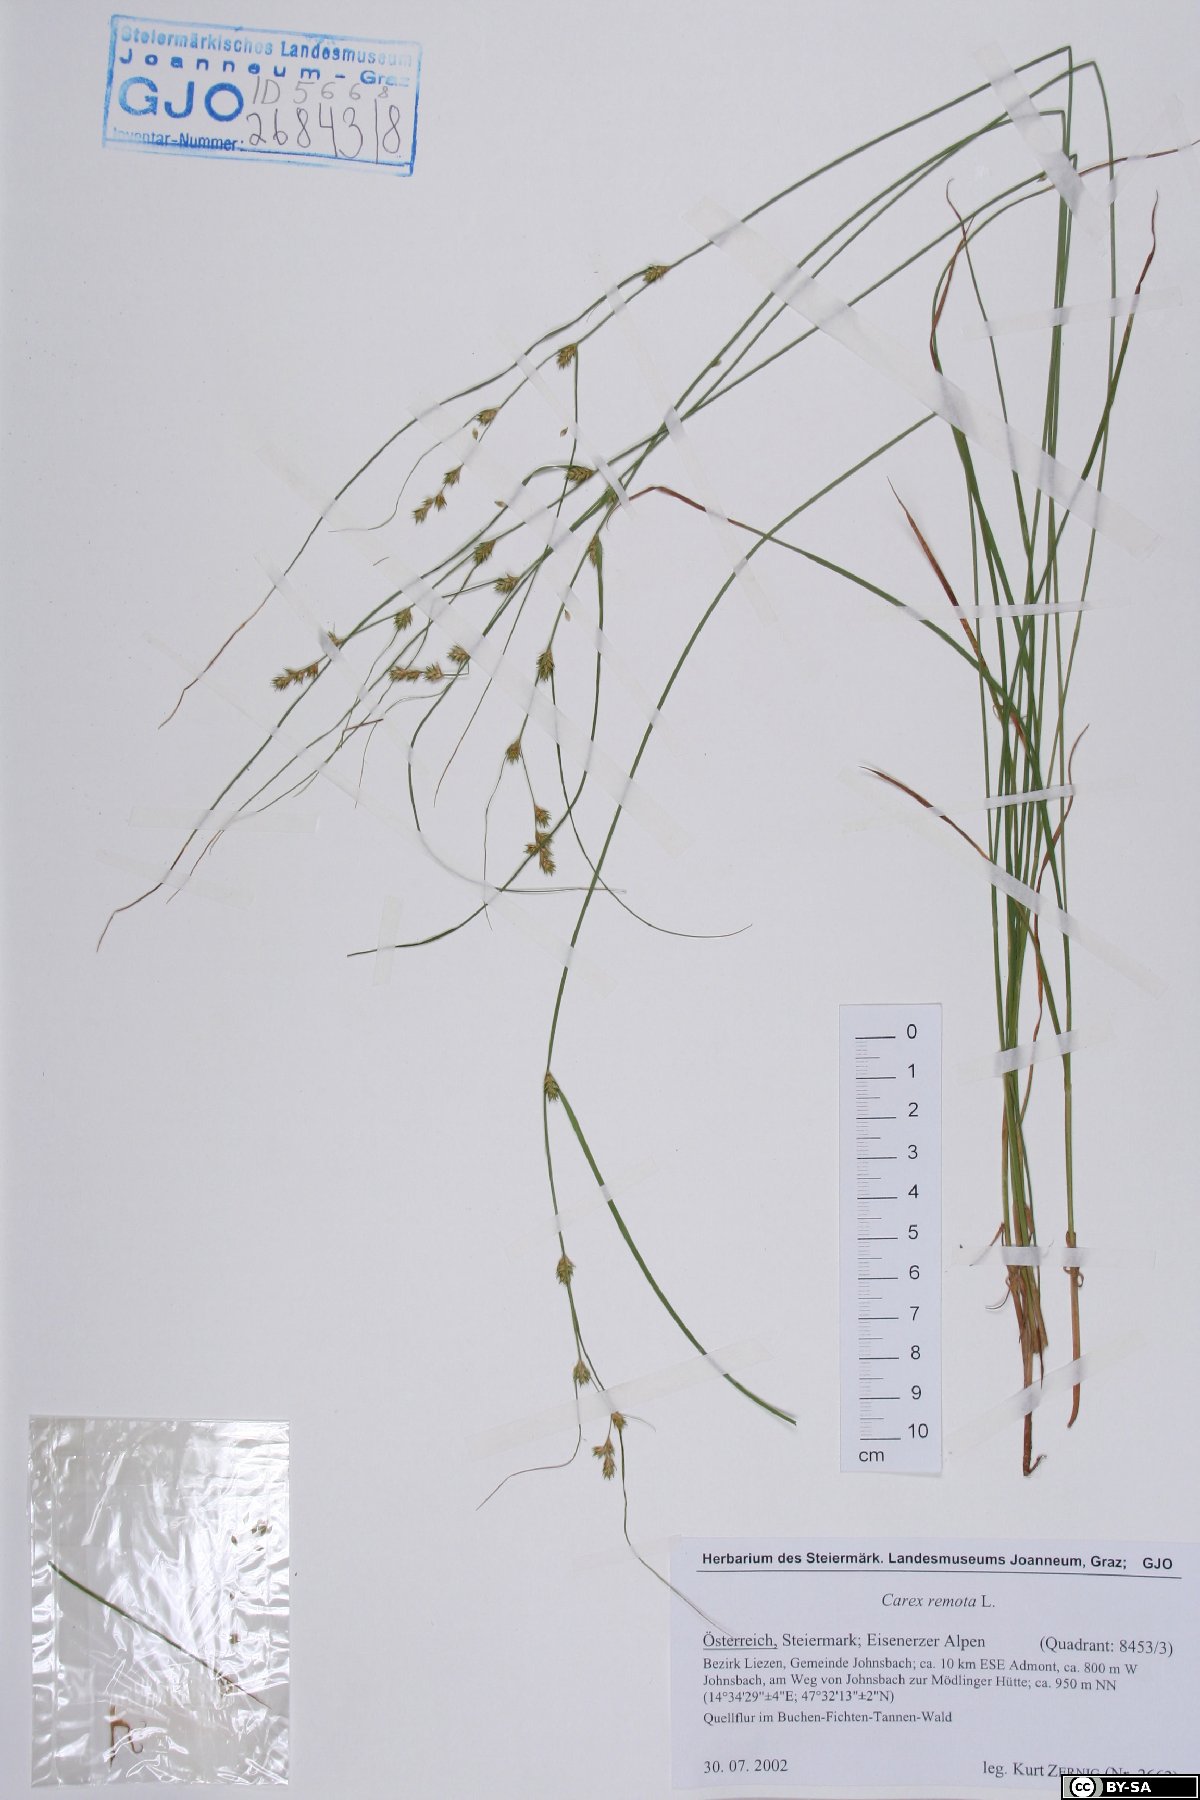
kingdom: Plantae
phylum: Tracheophyta
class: Liliopsida
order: Poales
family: Cyperaceae
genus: Carex
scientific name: Carex remota
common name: Remote sedge
